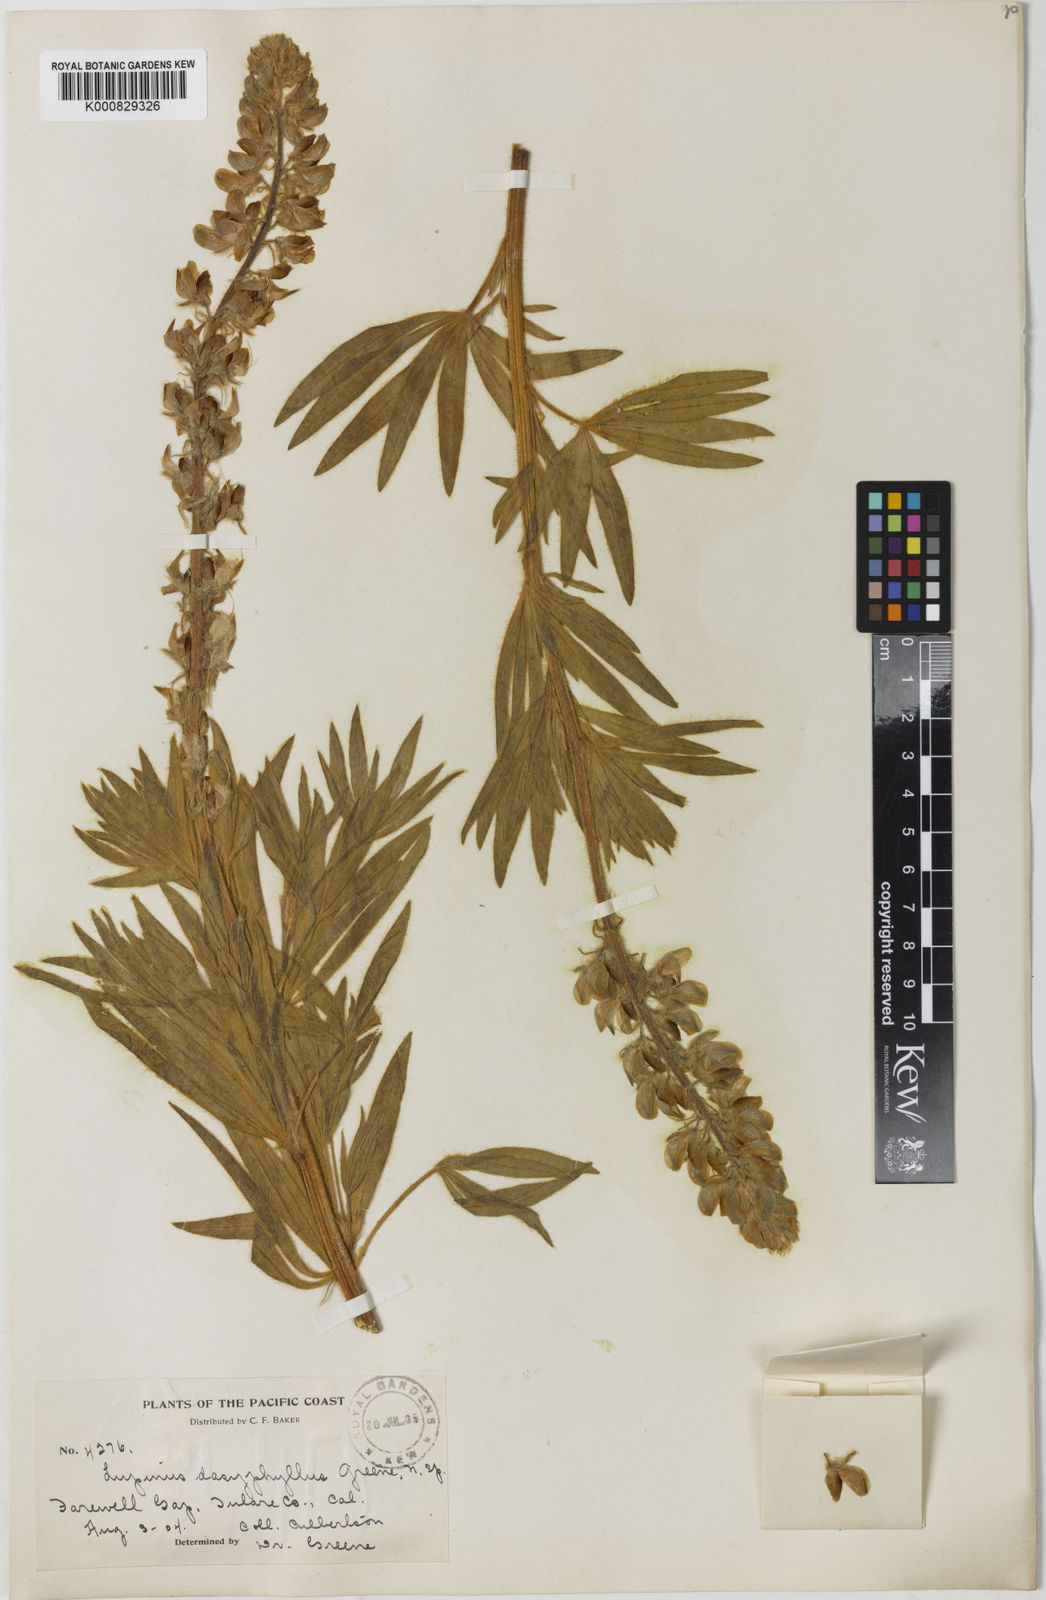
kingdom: Plantae
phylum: Tracheophyta
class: Magnoliopsida
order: Fabales
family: Fabaceae
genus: Lupinus
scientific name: Lupinus covillei
